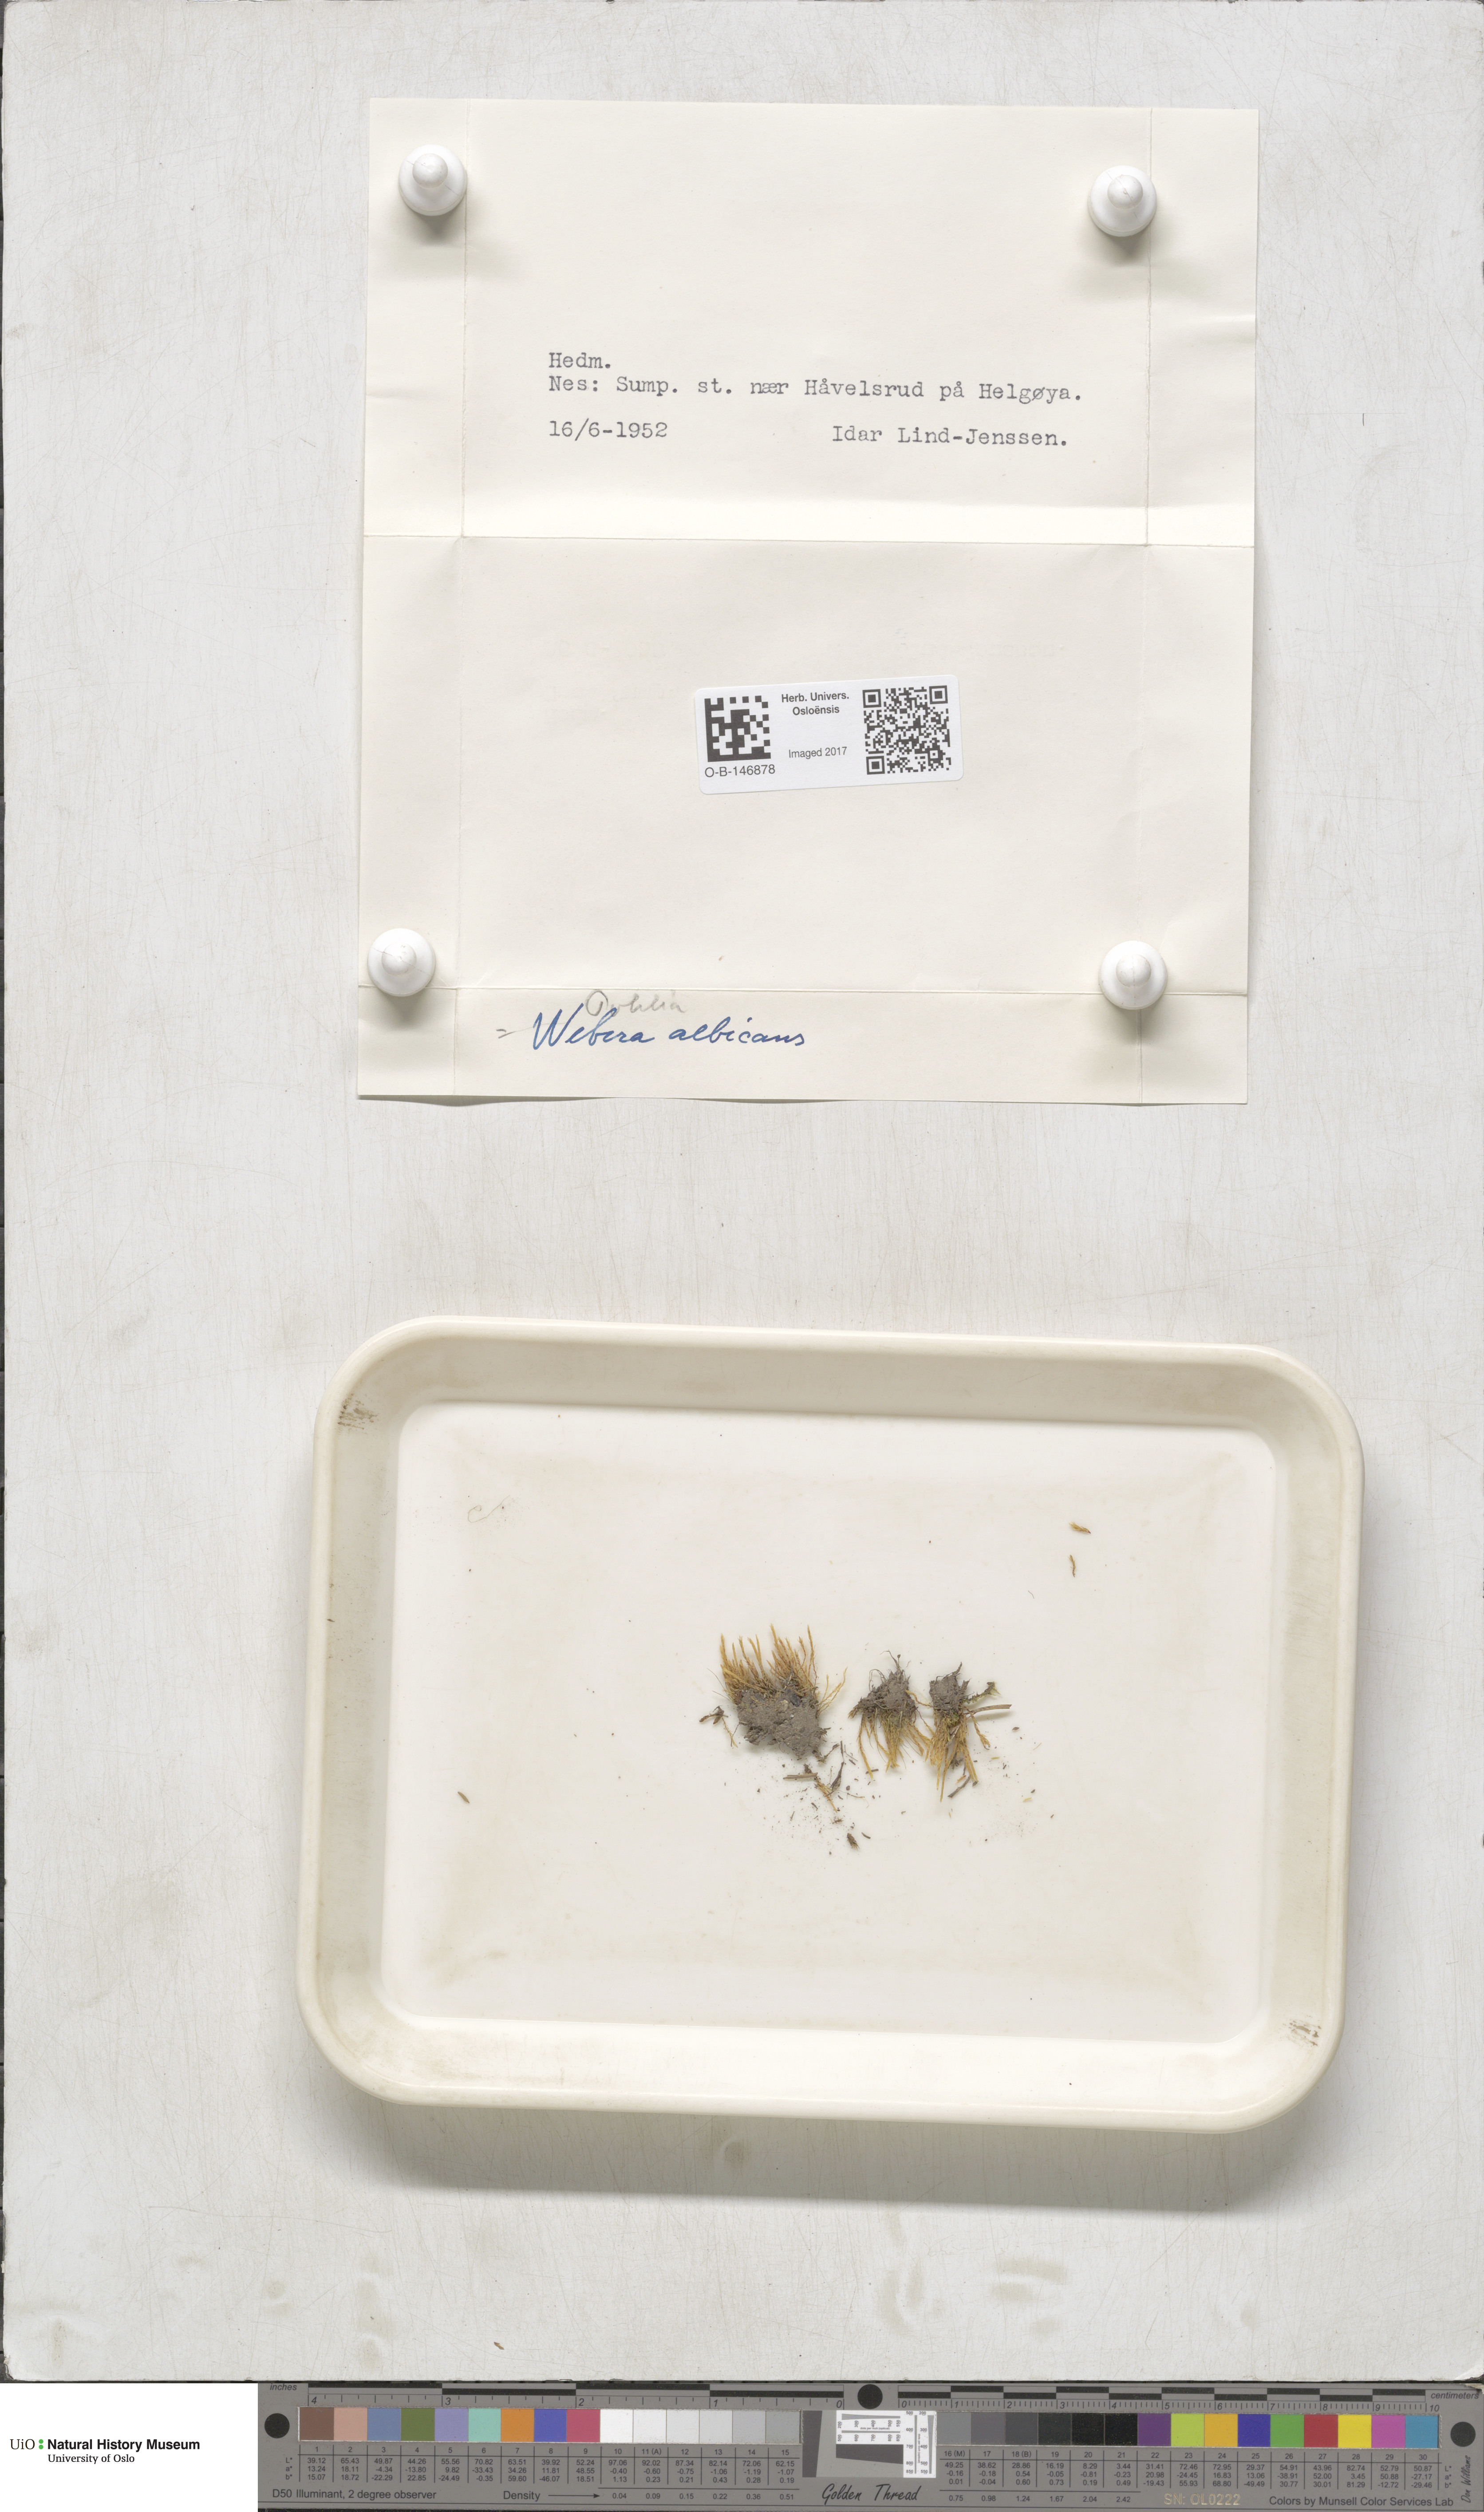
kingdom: Plantae
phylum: Bryophyta
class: Bryopsida
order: Bryales
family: Mniaceae
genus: Pohlia
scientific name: Pohlia wahlenbergii
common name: Wahlenberg's nodding moss
